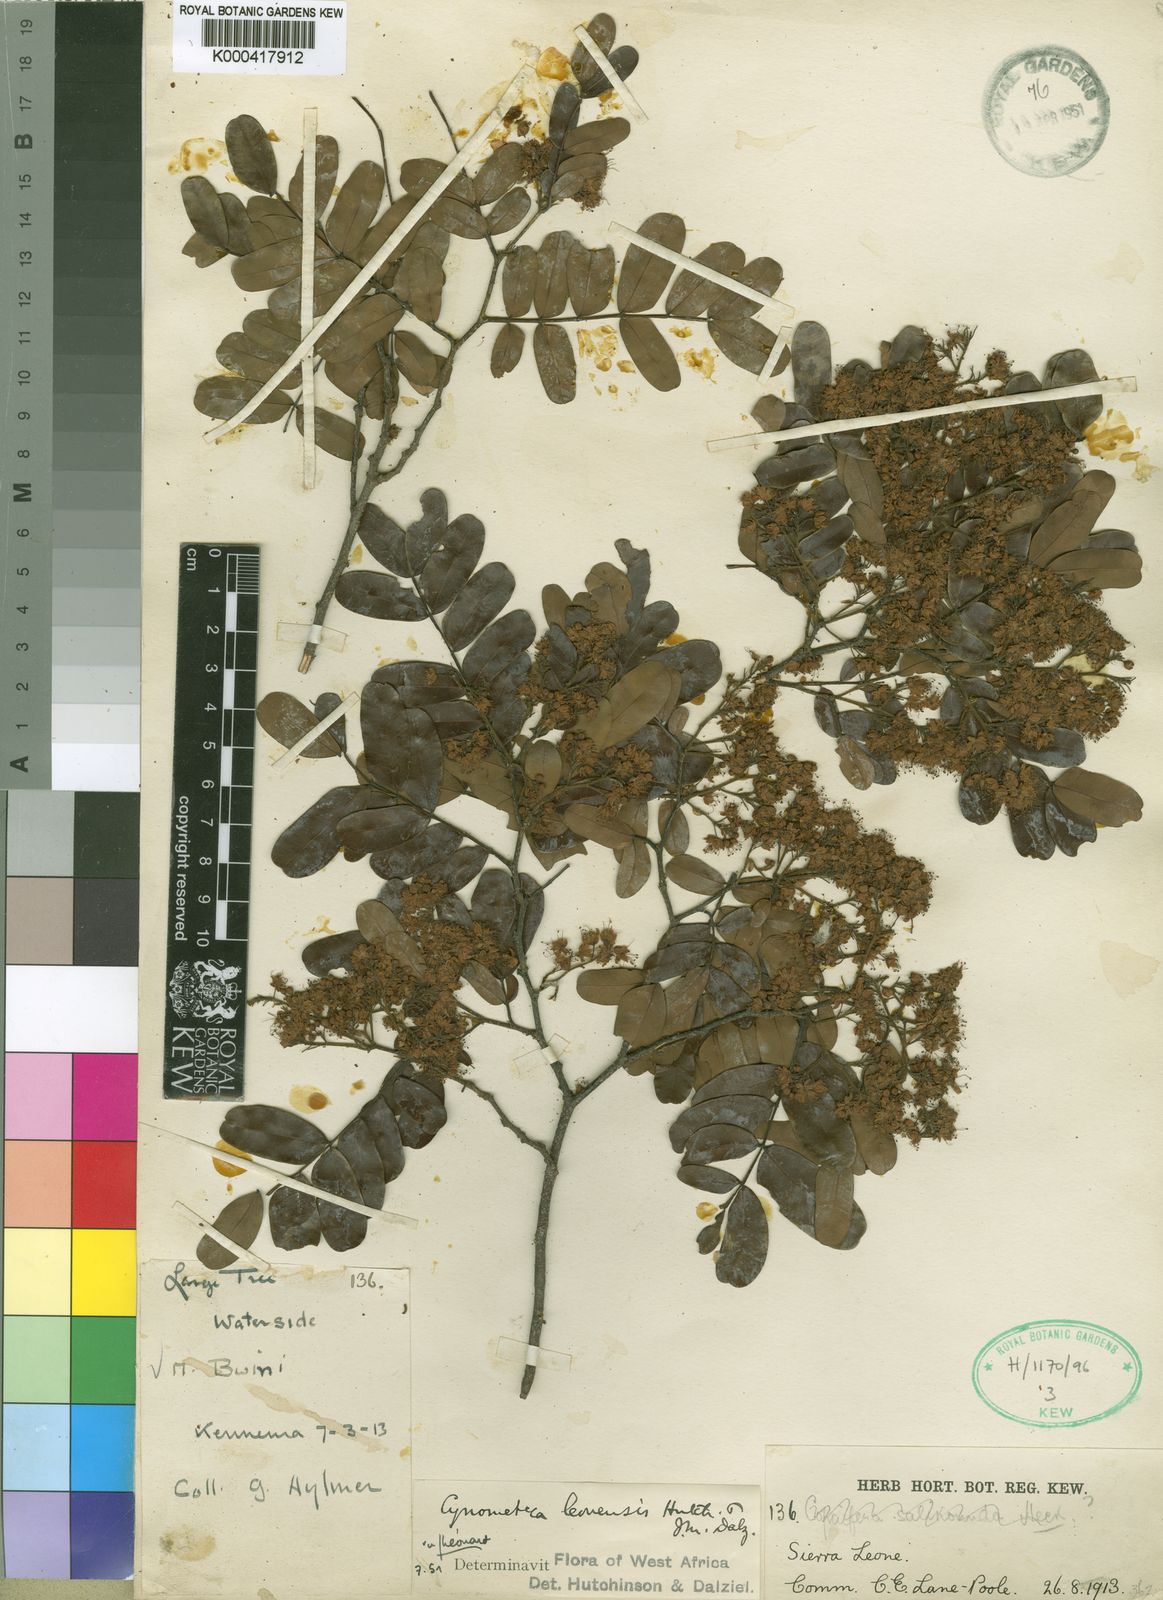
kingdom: Plantae
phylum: Tracheophyta
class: Magnoliopsida
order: Fabales
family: Fabaceae
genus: Copaifera
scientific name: Copaifera salikounda
